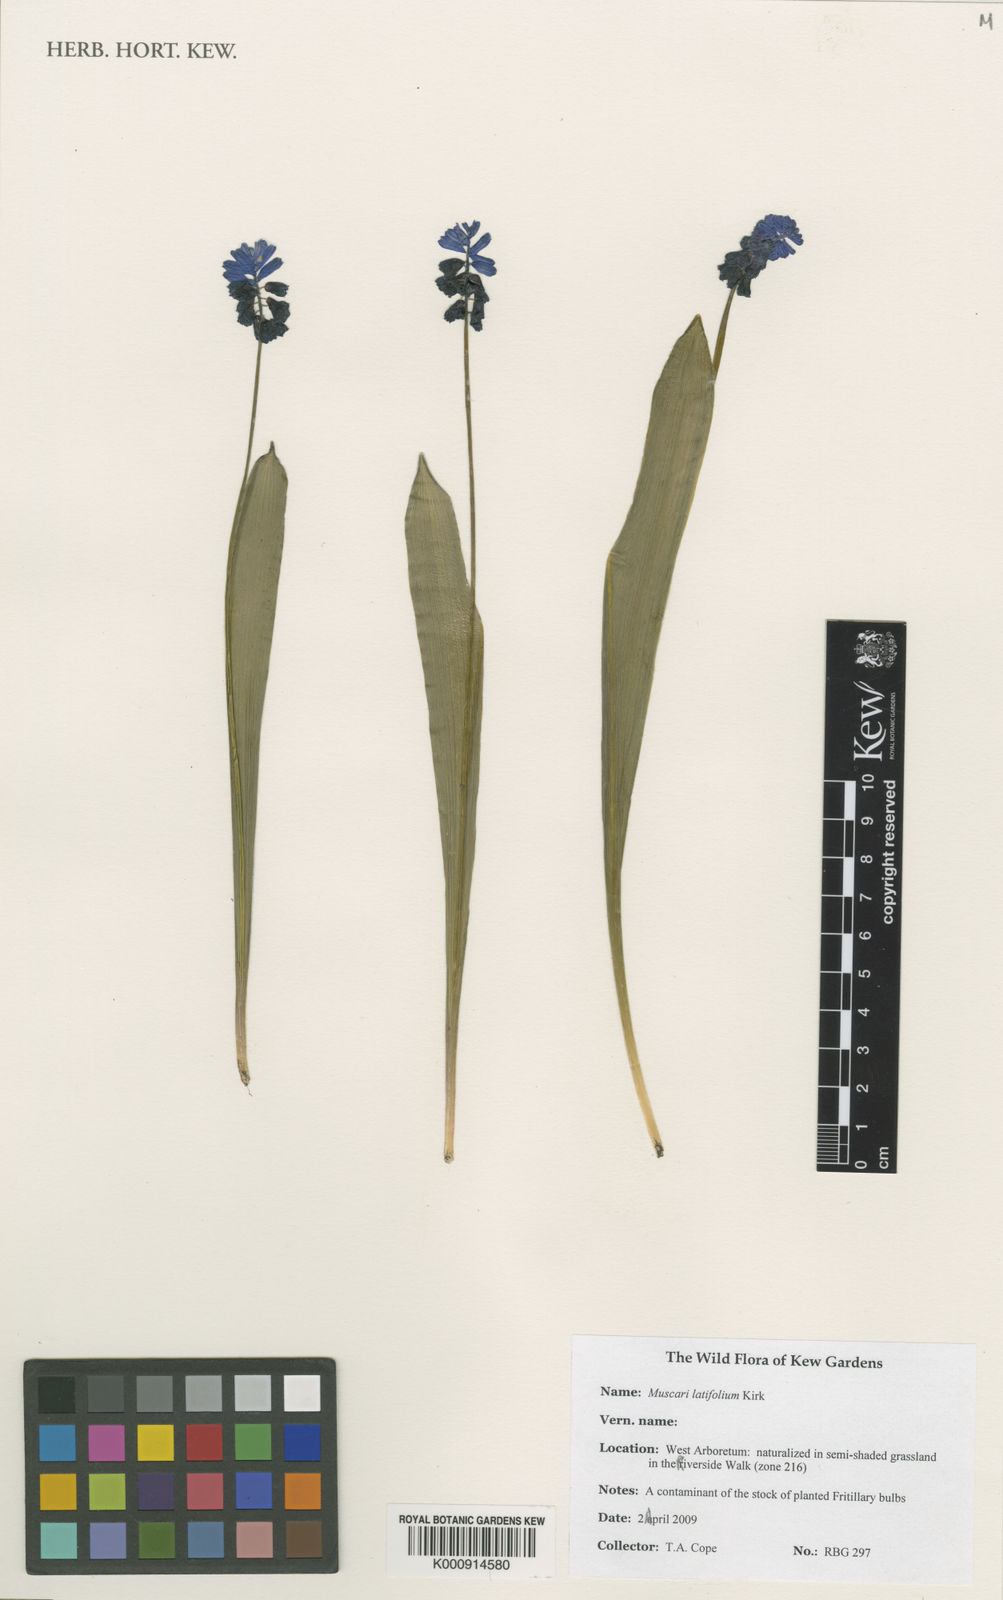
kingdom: Plantae
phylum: Tracheophyta
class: Liliopsida
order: Asparagales
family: Asparagaceae
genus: Muscari
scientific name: Muscari latifolium
